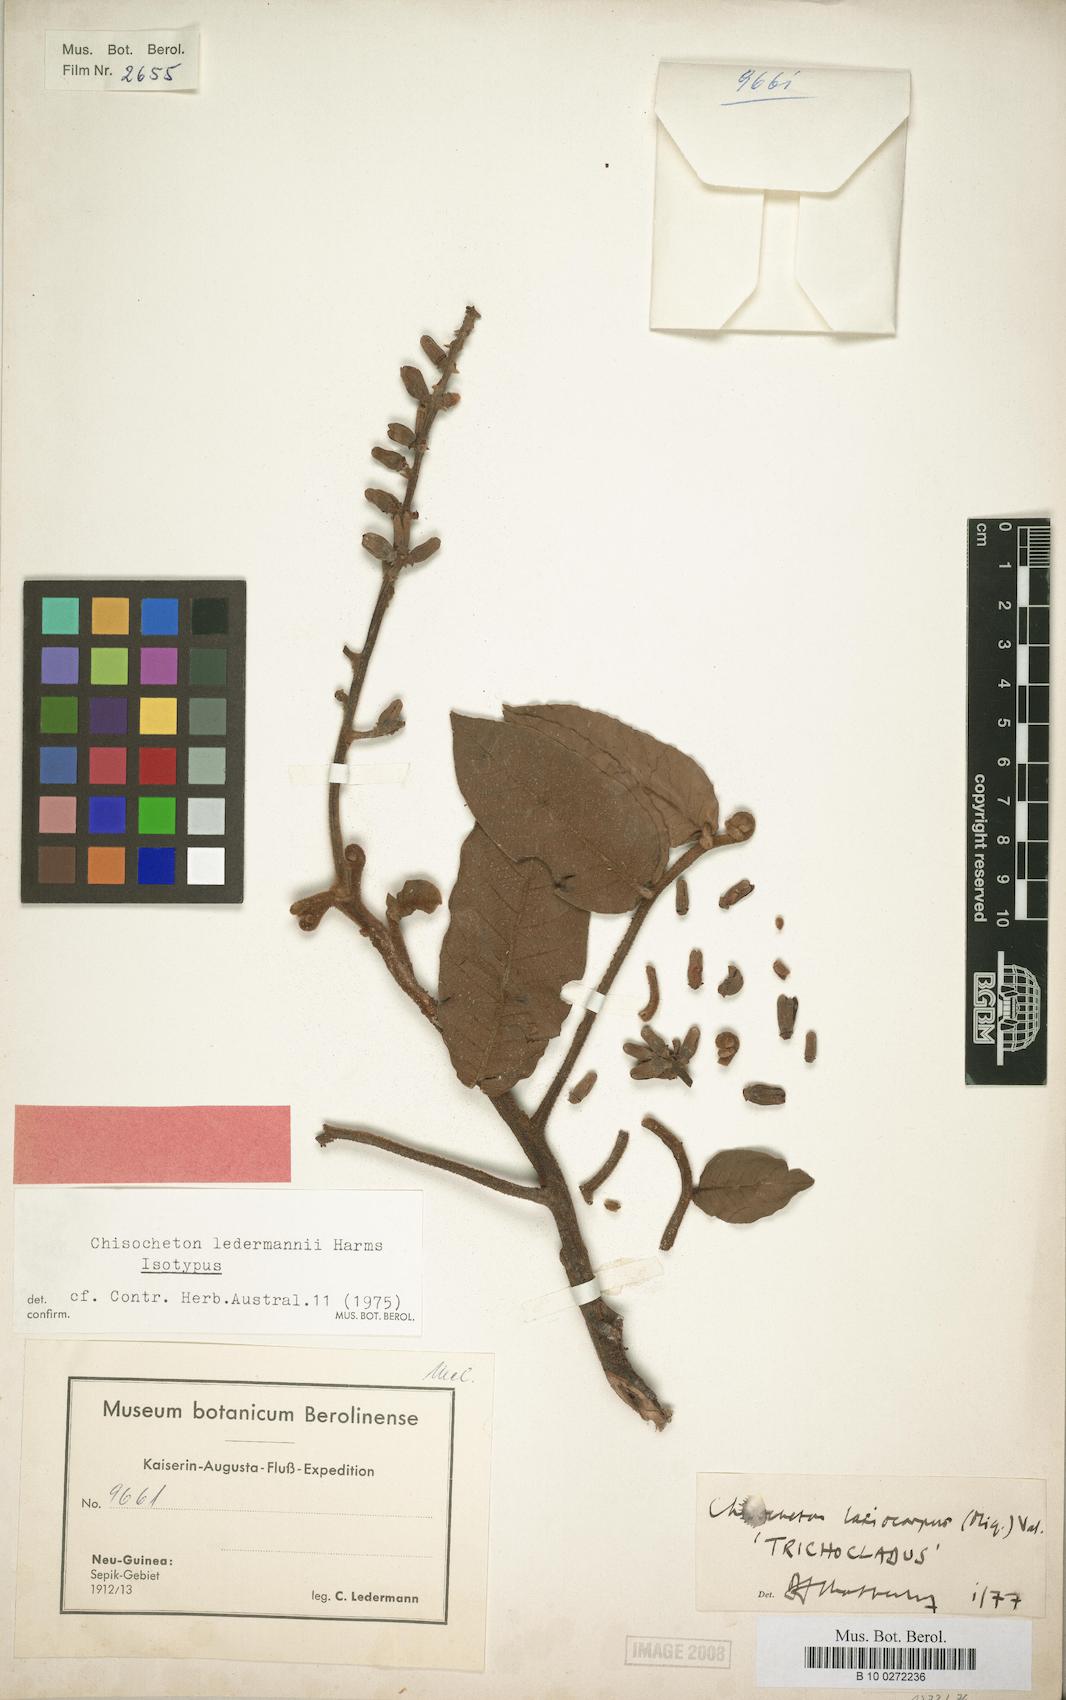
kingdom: Plantae
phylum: Tracheophyta
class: Magnoliopsida
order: Sapindales
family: Meliaceae
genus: Chisocheton
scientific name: Chisocheton lasiocarpum
